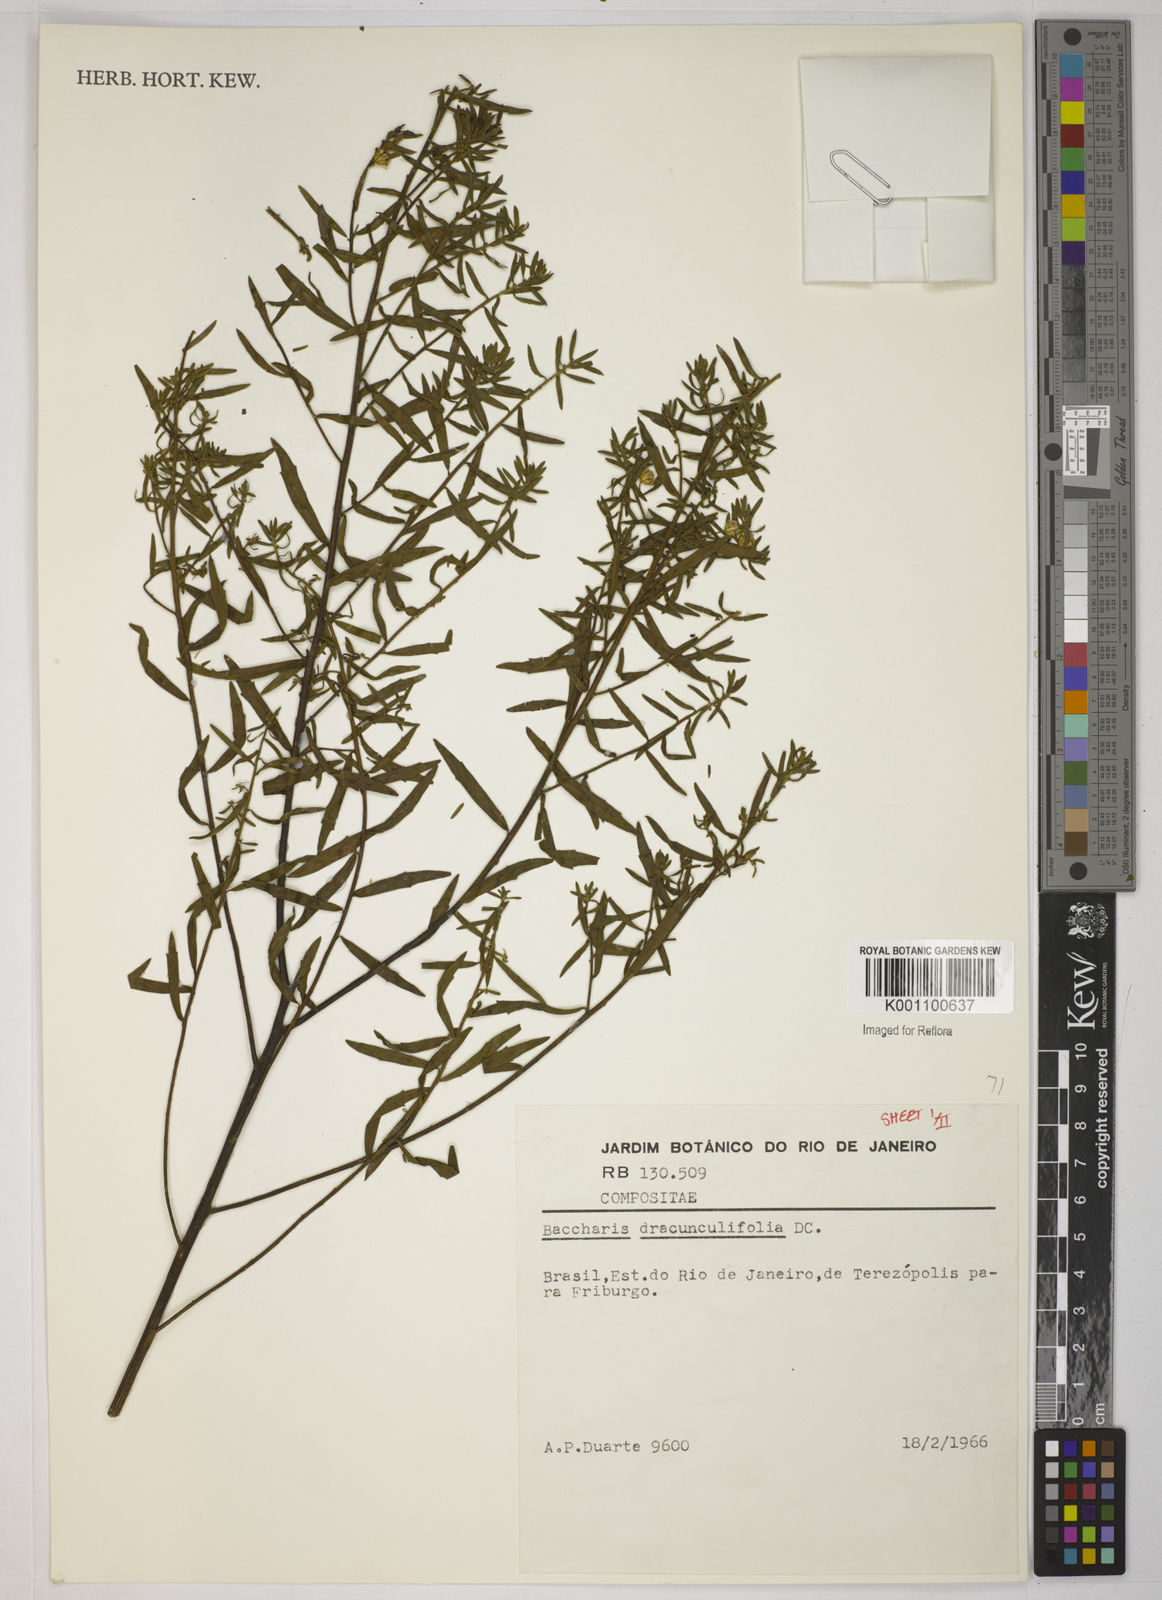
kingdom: Plantae
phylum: Tracheophyta
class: Magnoliopsida
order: Asterales
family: Asteraceae
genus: Baccharis
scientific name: Baccharis dracunculifolia
